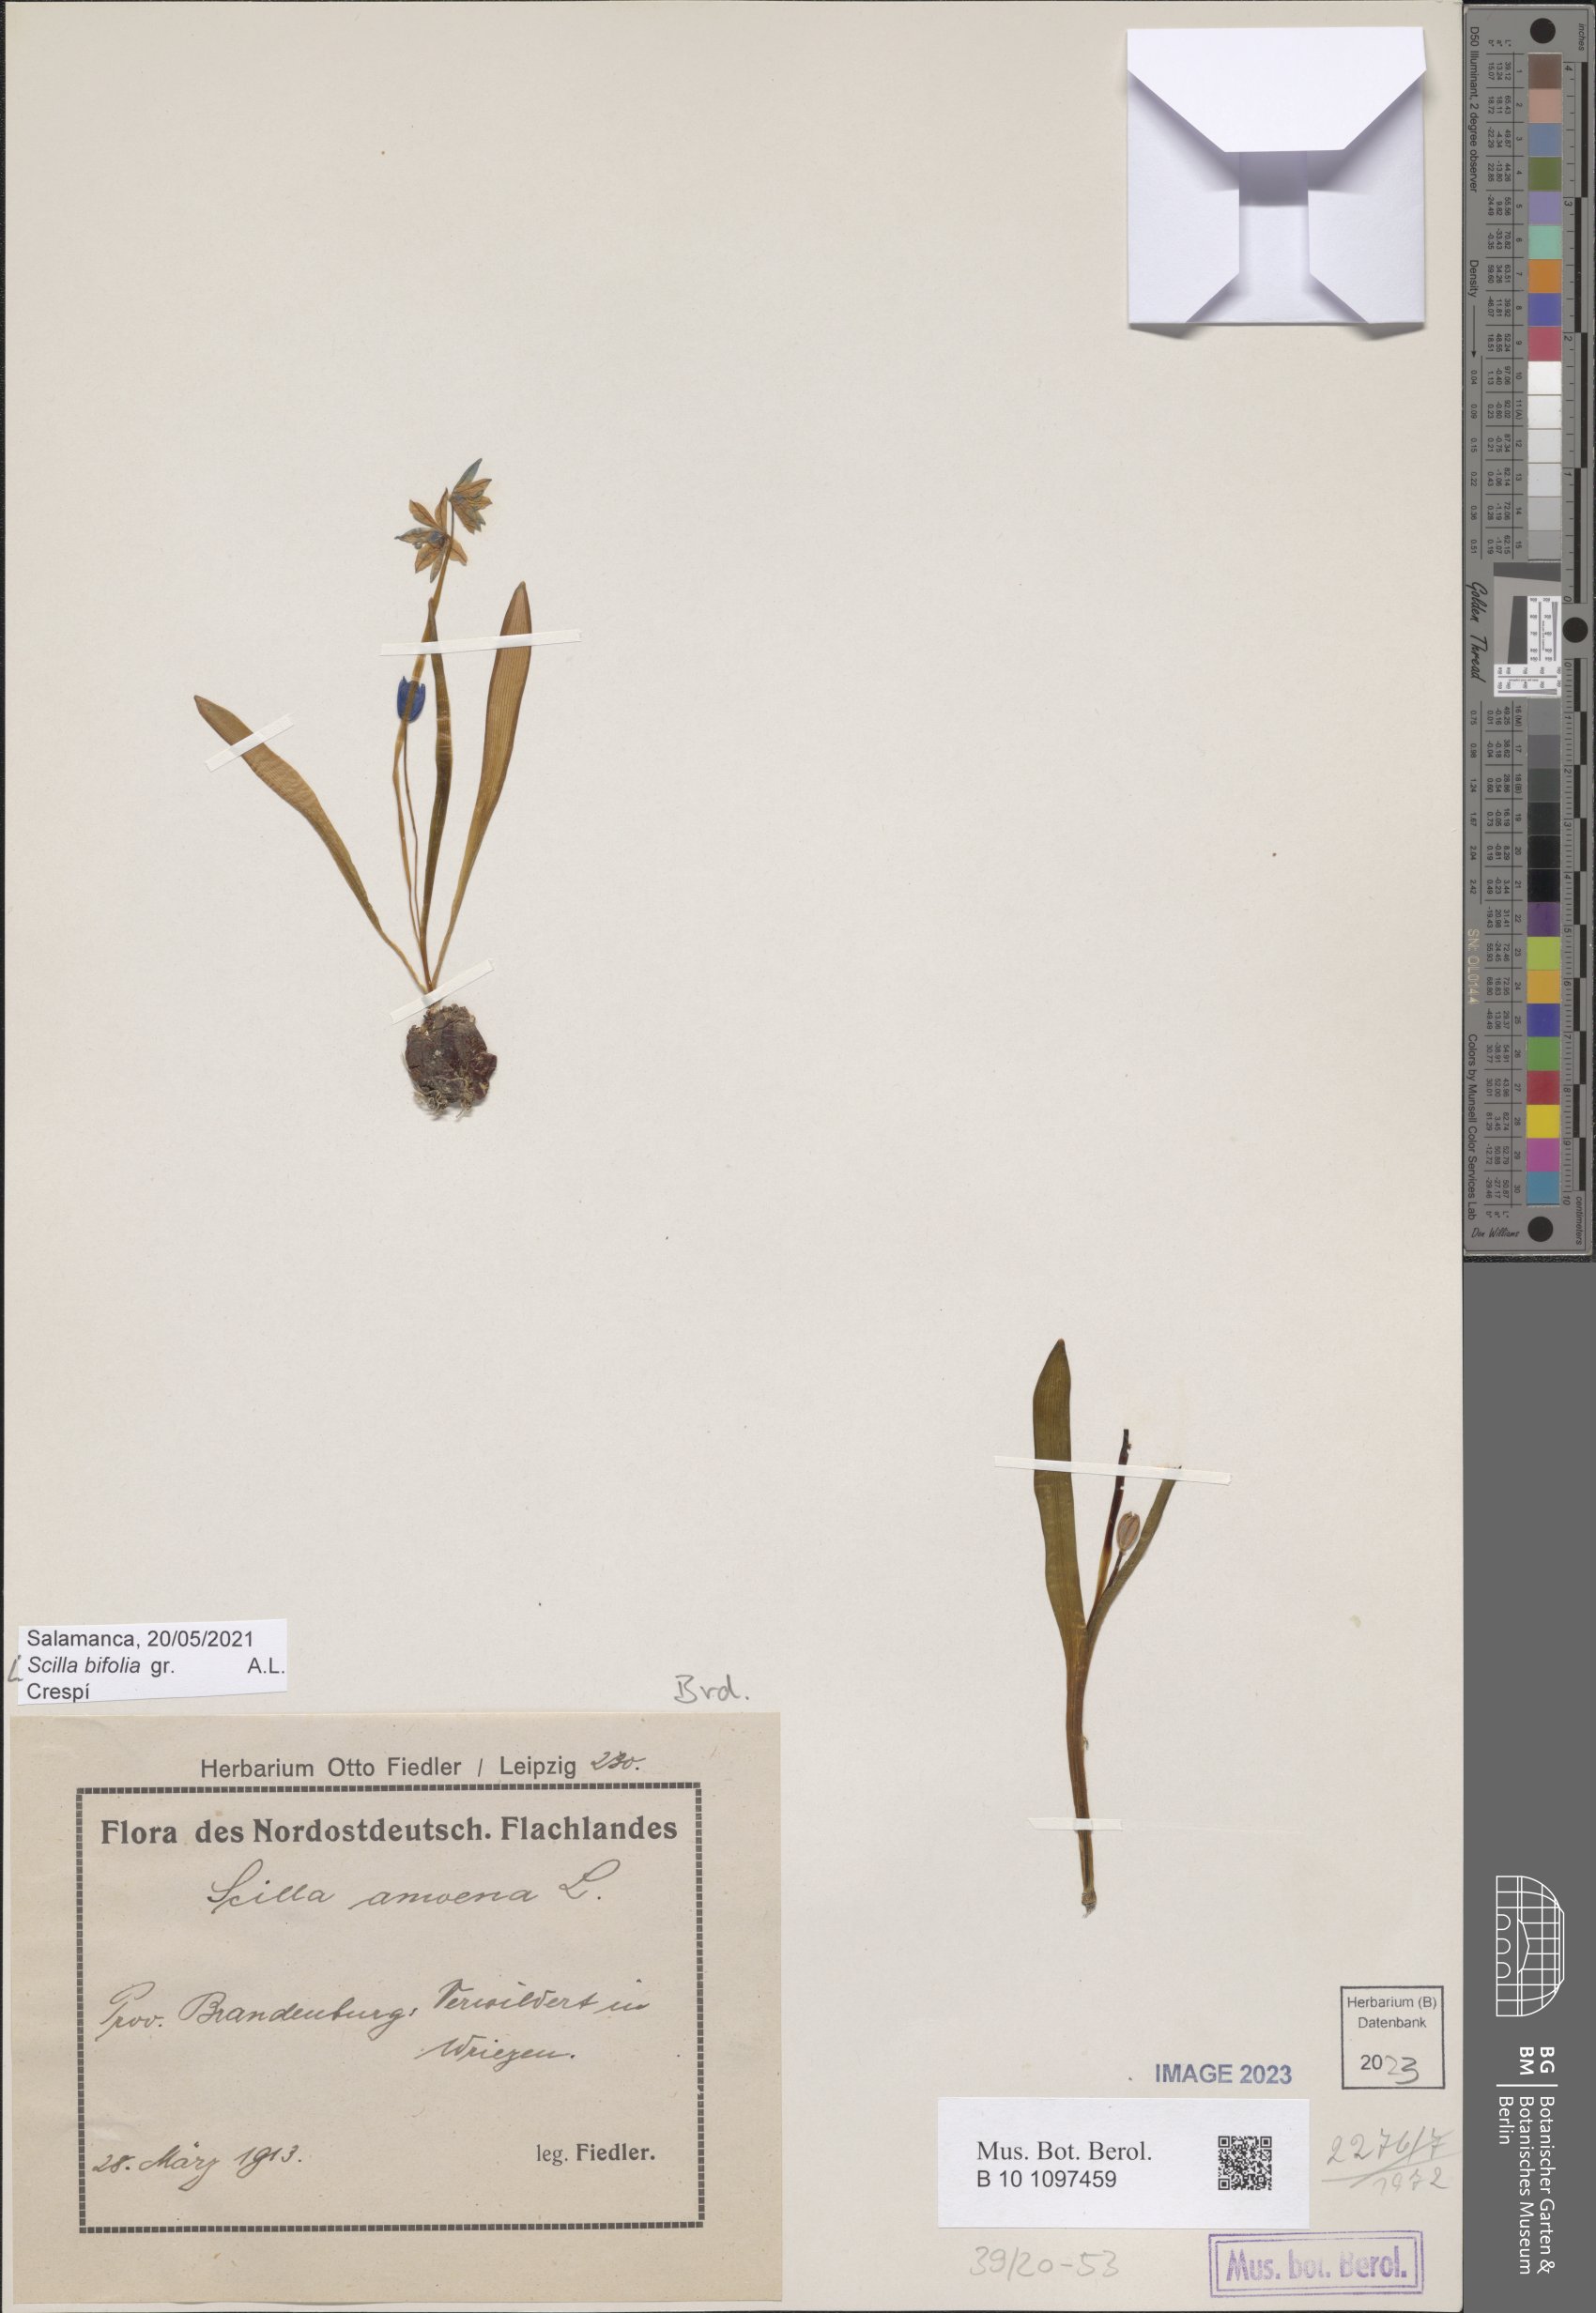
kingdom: Plantae
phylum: Tracheophyta
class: Liliopsida
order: Asparagales
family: Asparagaceae
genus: Scilla
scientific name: Scilla bifolia
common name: Alpine squill
